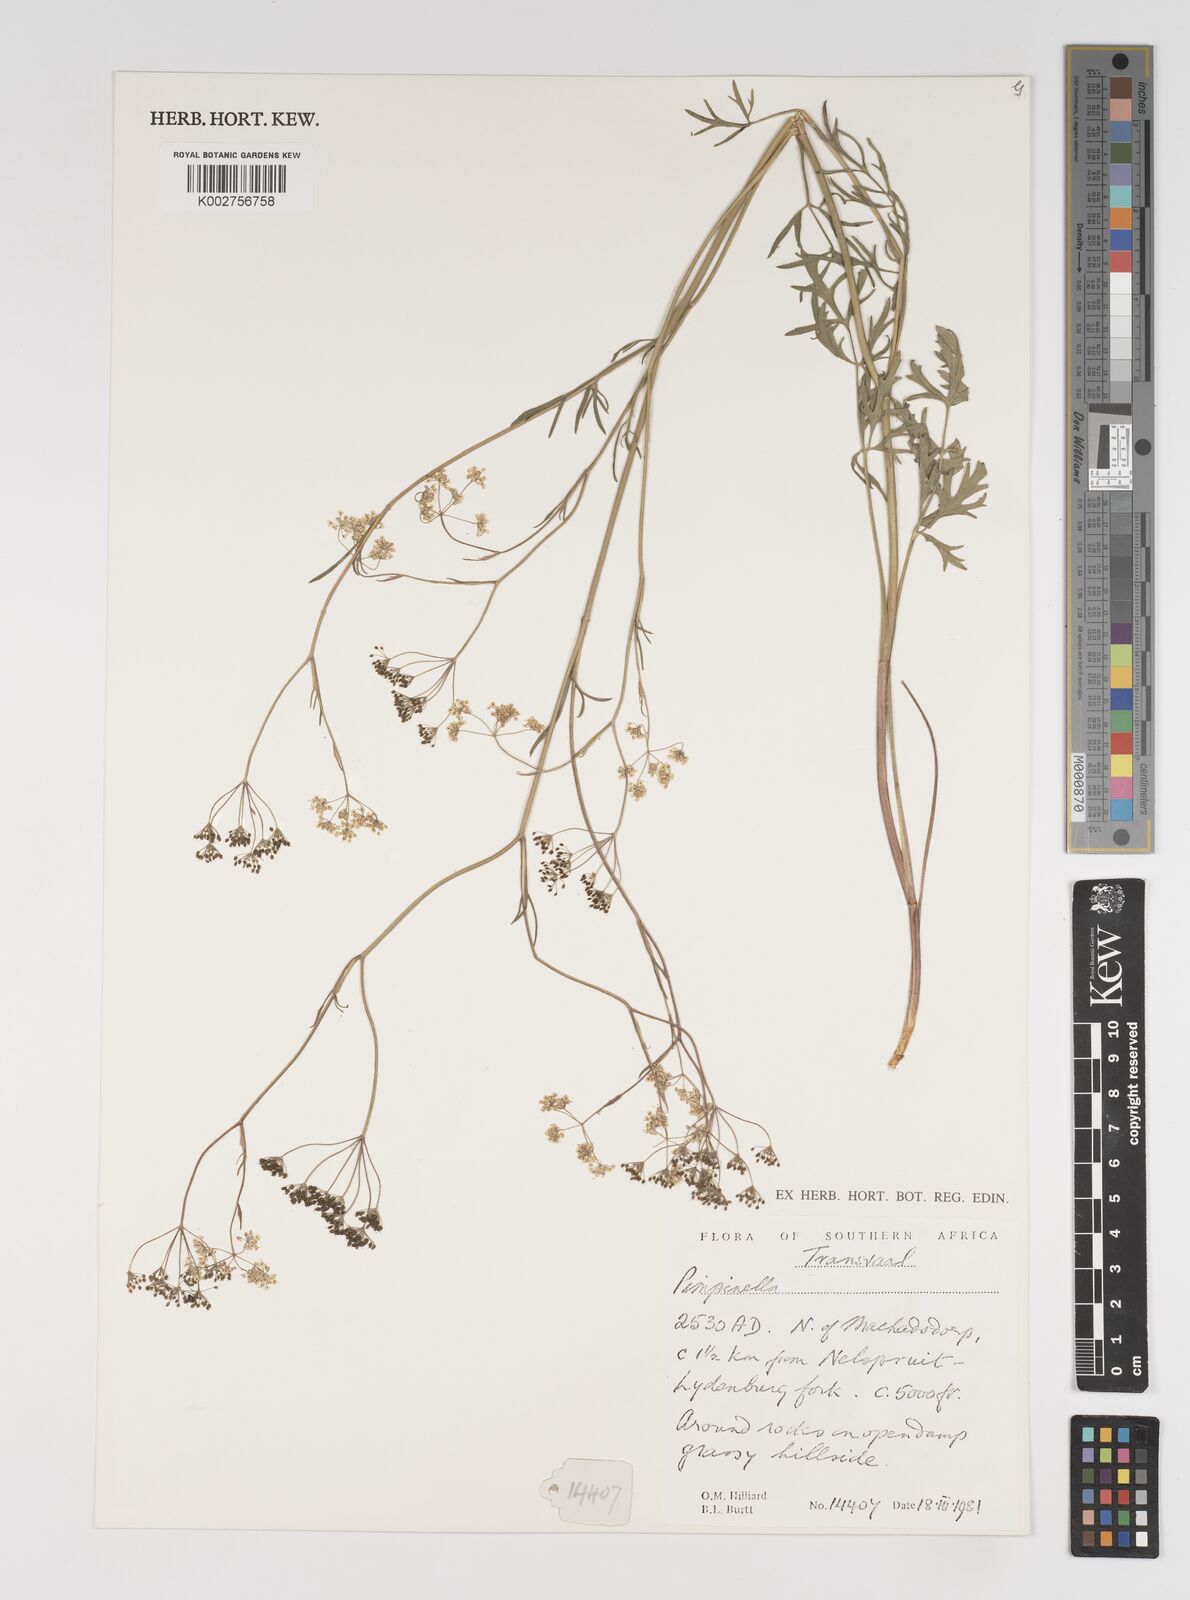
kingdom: Plantae
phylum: Tracheophyta
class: Magnoliopsida
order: Apiales
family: Apiaceae
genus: Pimpinella
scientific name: Pimpinella
